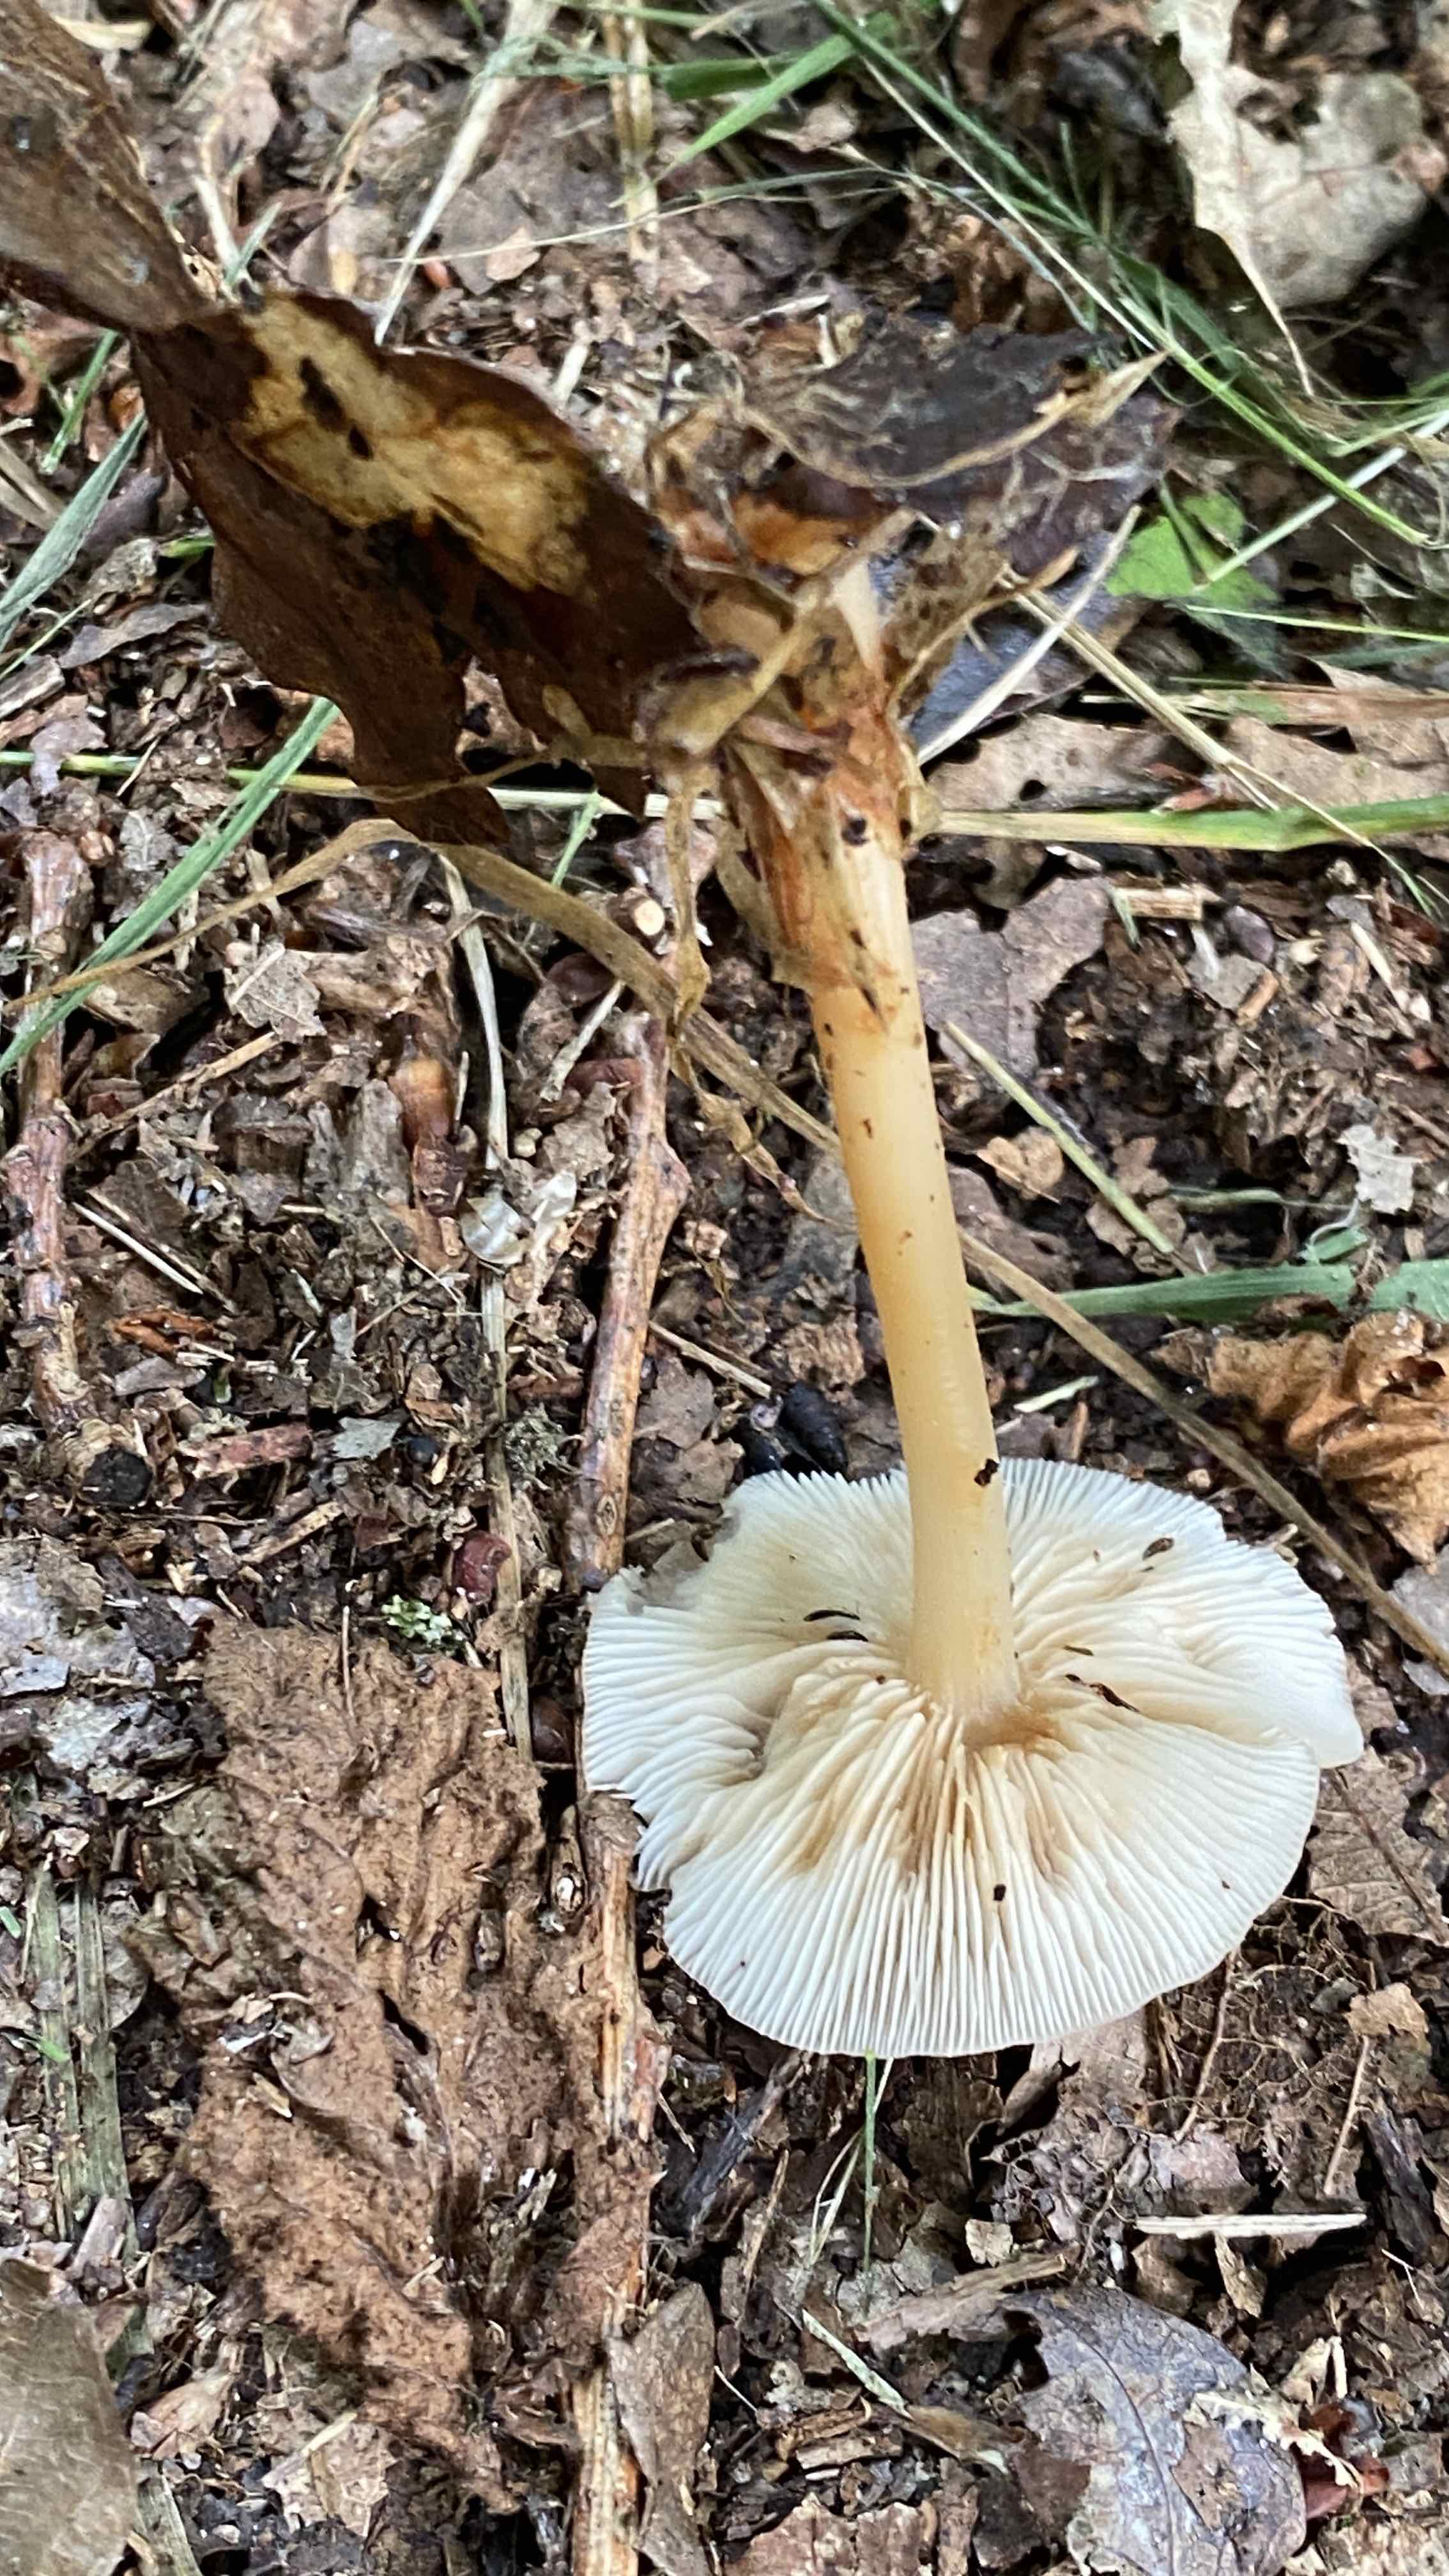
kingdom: Fungi
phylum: Basidiomycota
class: Agaricomycetes
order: Agaricales
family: Omphalotaceae
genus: Gymnopus
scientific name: Gymnopus dryophilus
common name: løv-fladhat
